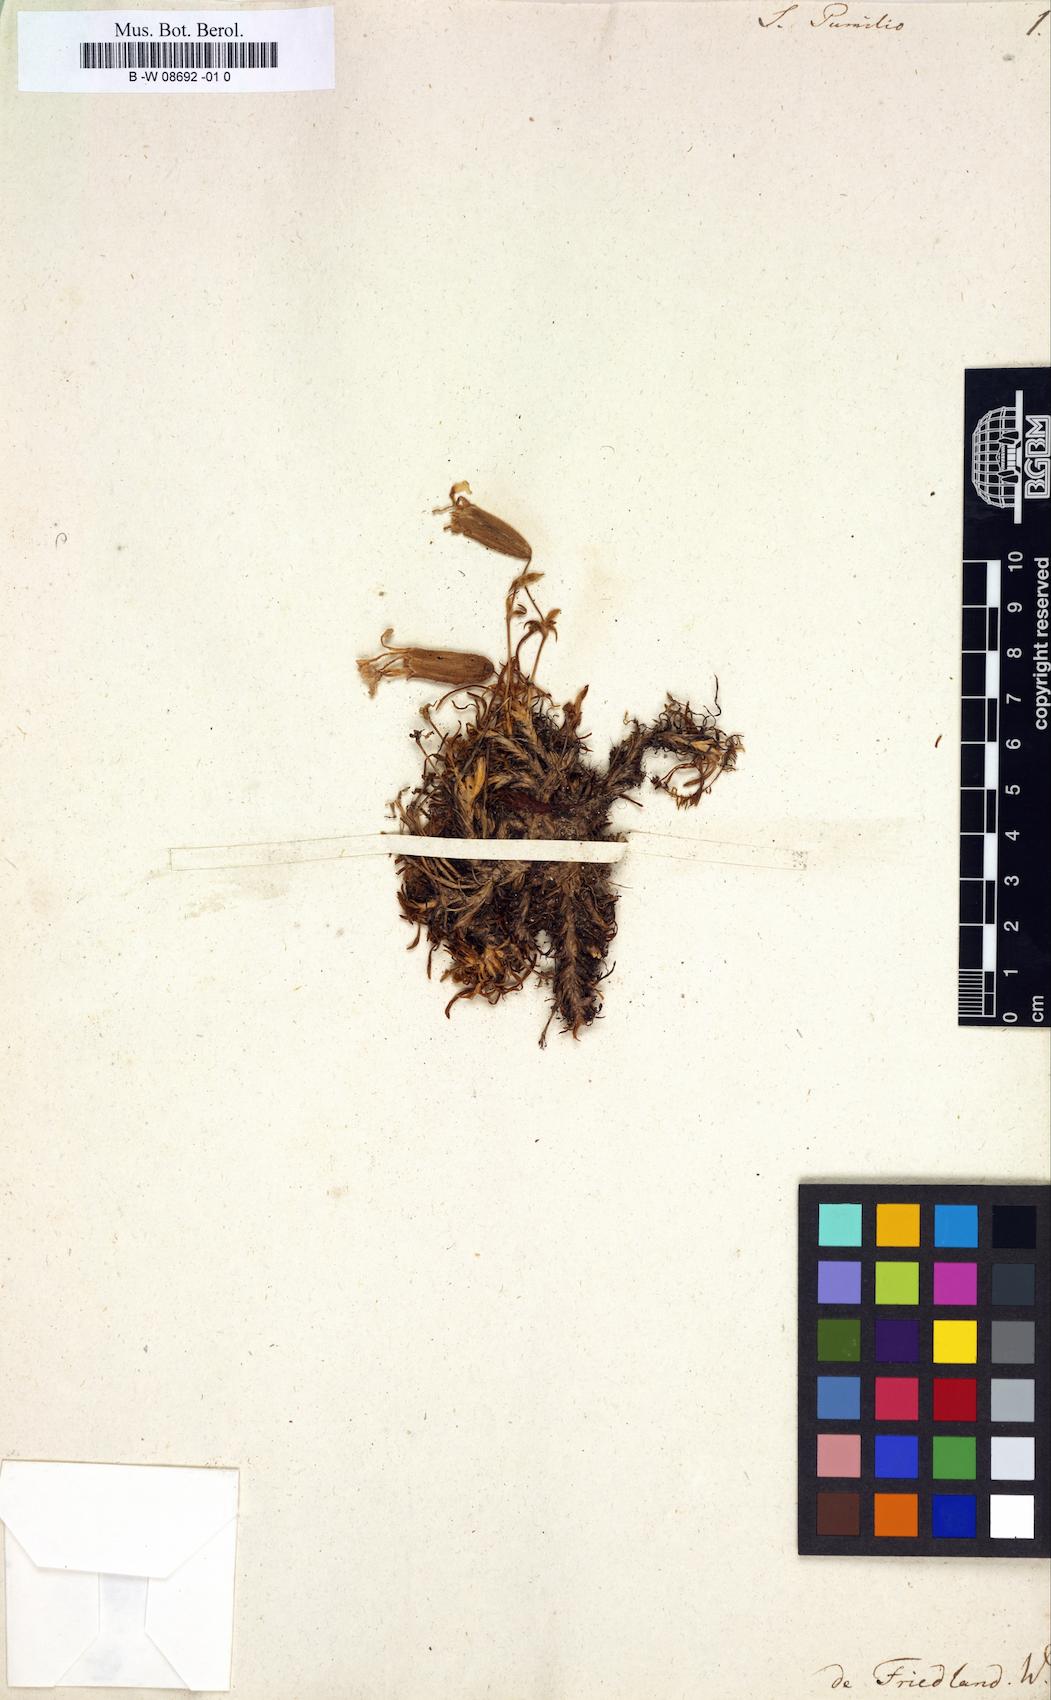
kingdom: Plantae
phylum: Tracheophyta
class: Magnoliopsida
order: Caryophyllales
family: Caryophyllaceae
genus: Saponaria
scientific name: Saponaria pumila
